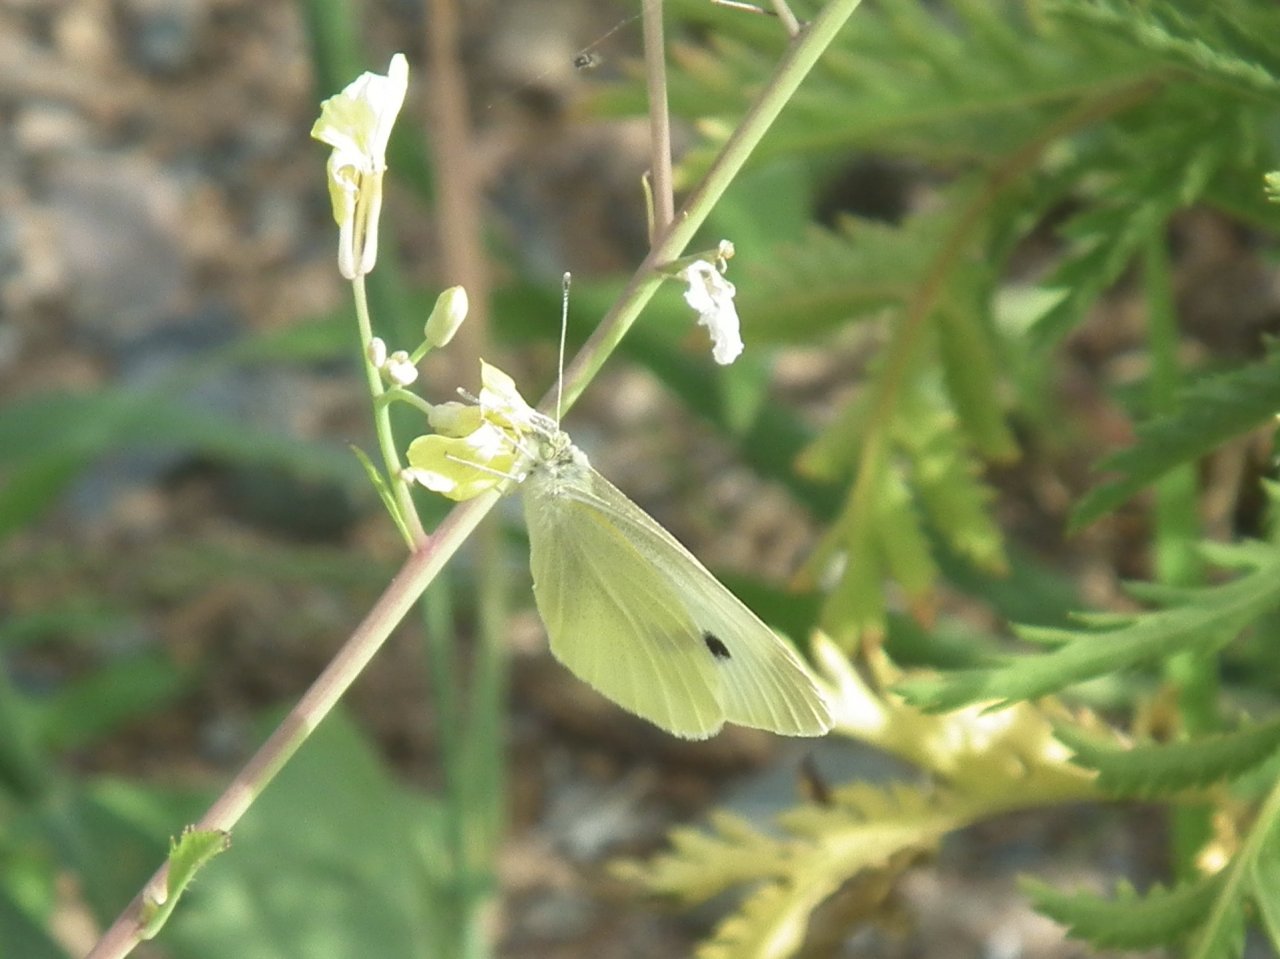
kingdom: Animalia
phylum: Arthropoda
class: Insecta
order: Lepidoptera
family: Pieridae
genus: Pieris
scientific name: Pieris rapae
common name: Cabbage White
